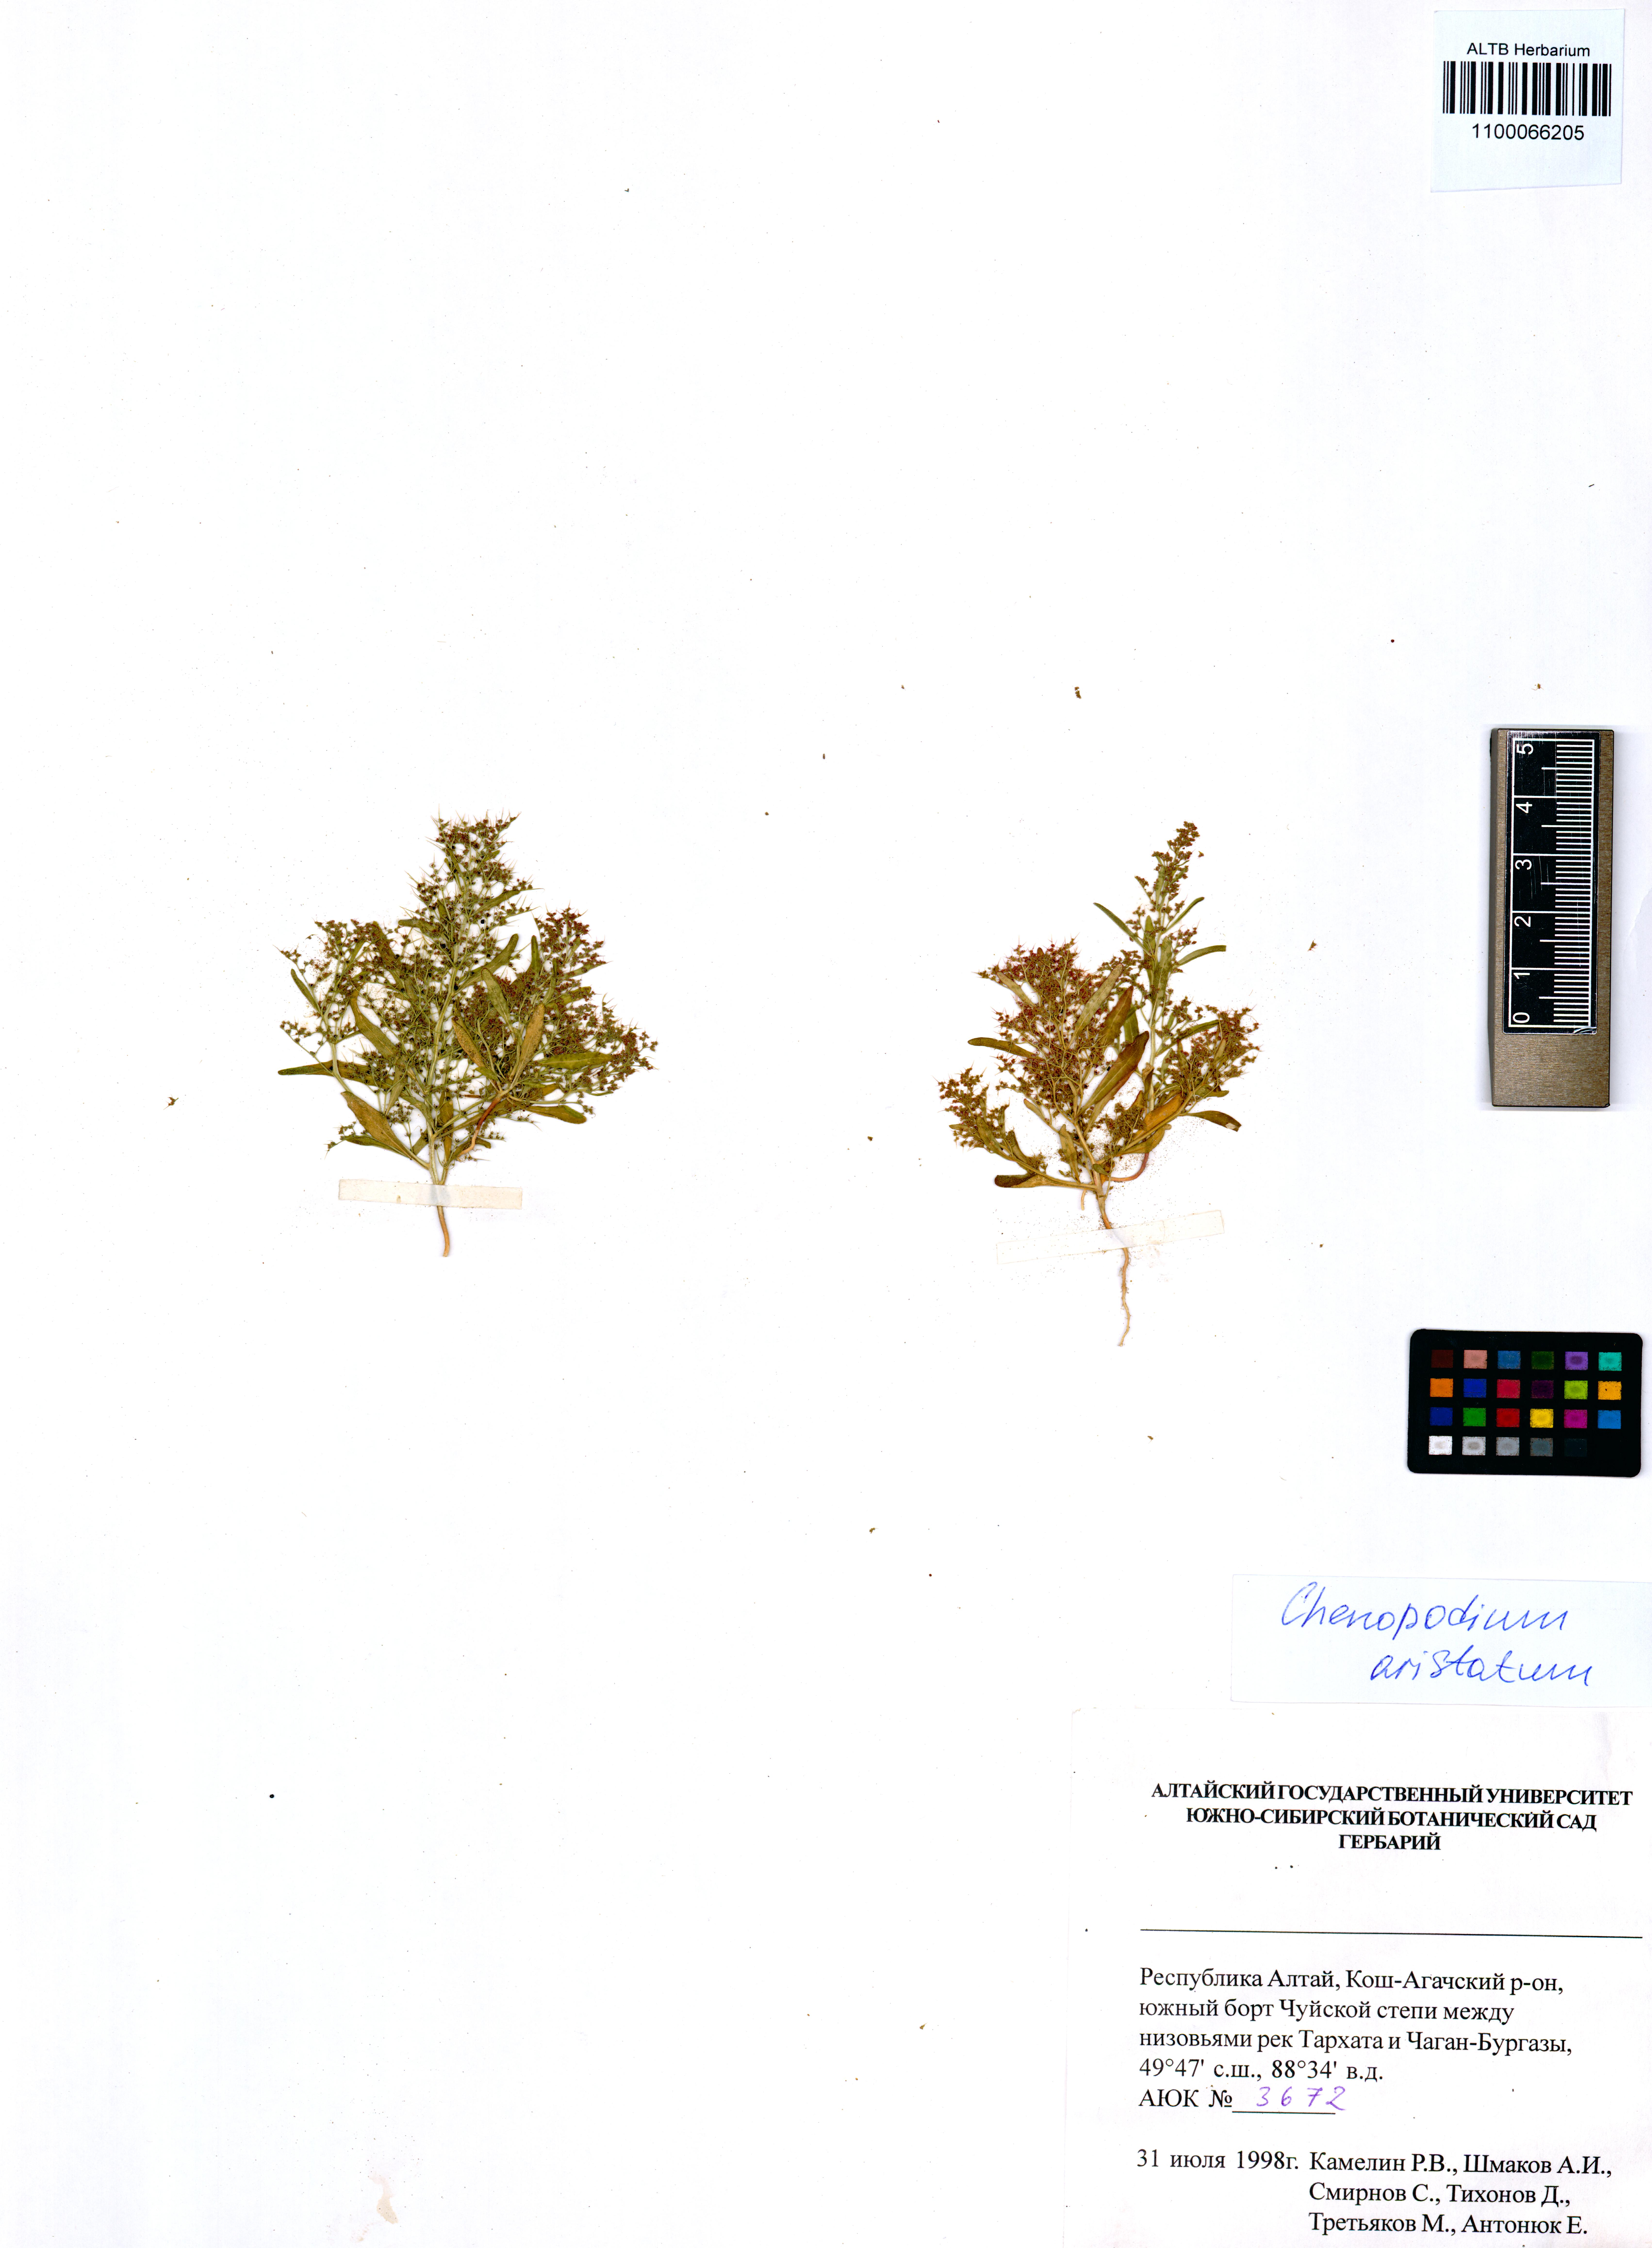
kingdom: Plantae
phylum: Tracheophyta
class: Magnoliopsida
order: Caryophyllales
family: Amaranthaceae
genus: Teloxys
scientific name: Teloxys aristata
